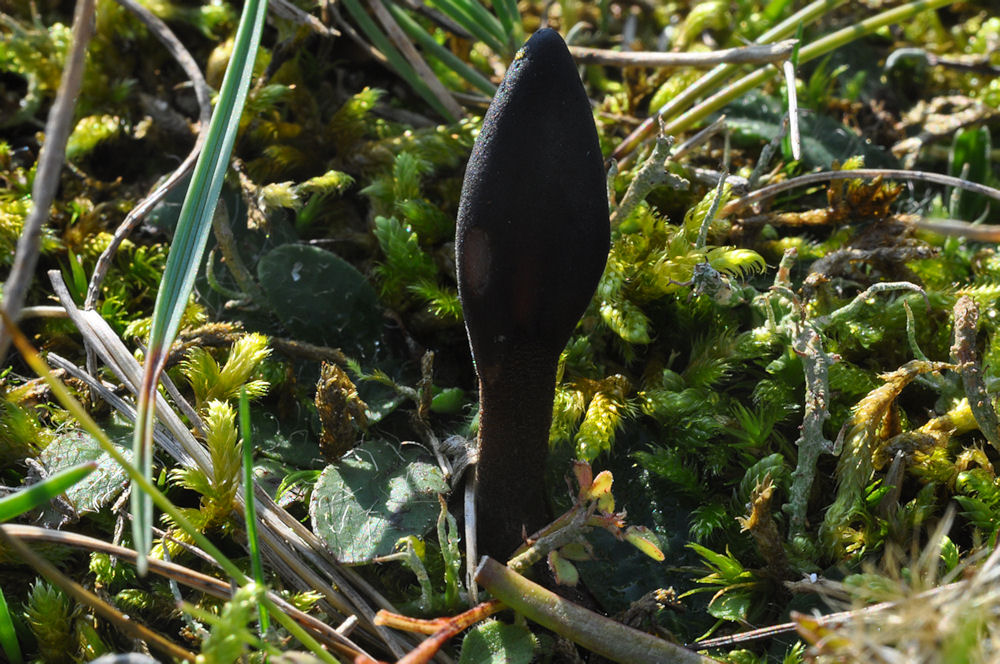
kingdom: Fungi
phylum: Ascomycota
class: Geoglossomycetes
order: Geoglossales
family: Geoglossaceae
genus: Hemileucoglossum
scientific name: Hemileucoglossum elongatum
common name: småsporet jordtunge
